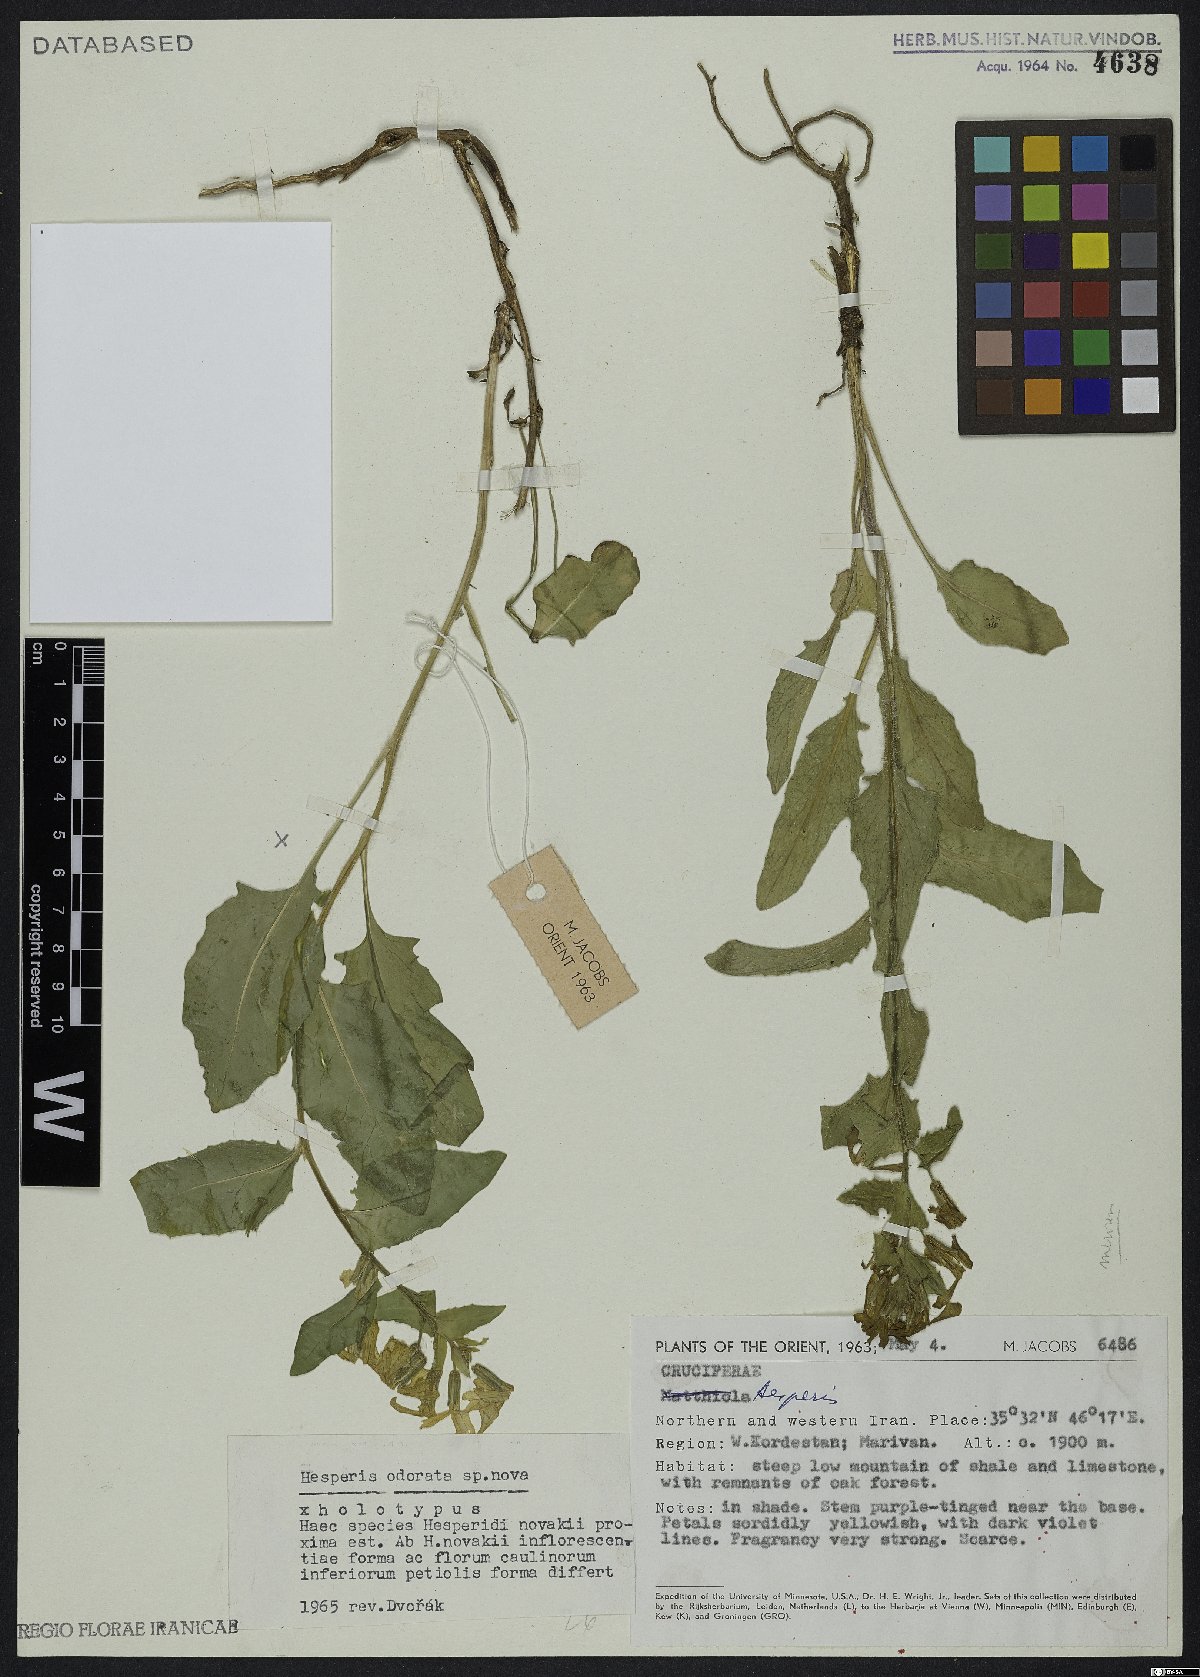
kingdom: Plantae
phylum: Tracheophyta
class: Magnoliopsida
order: Brassicales
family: Brassicaceae
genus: Hesperis
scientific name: Hesperis odorata
